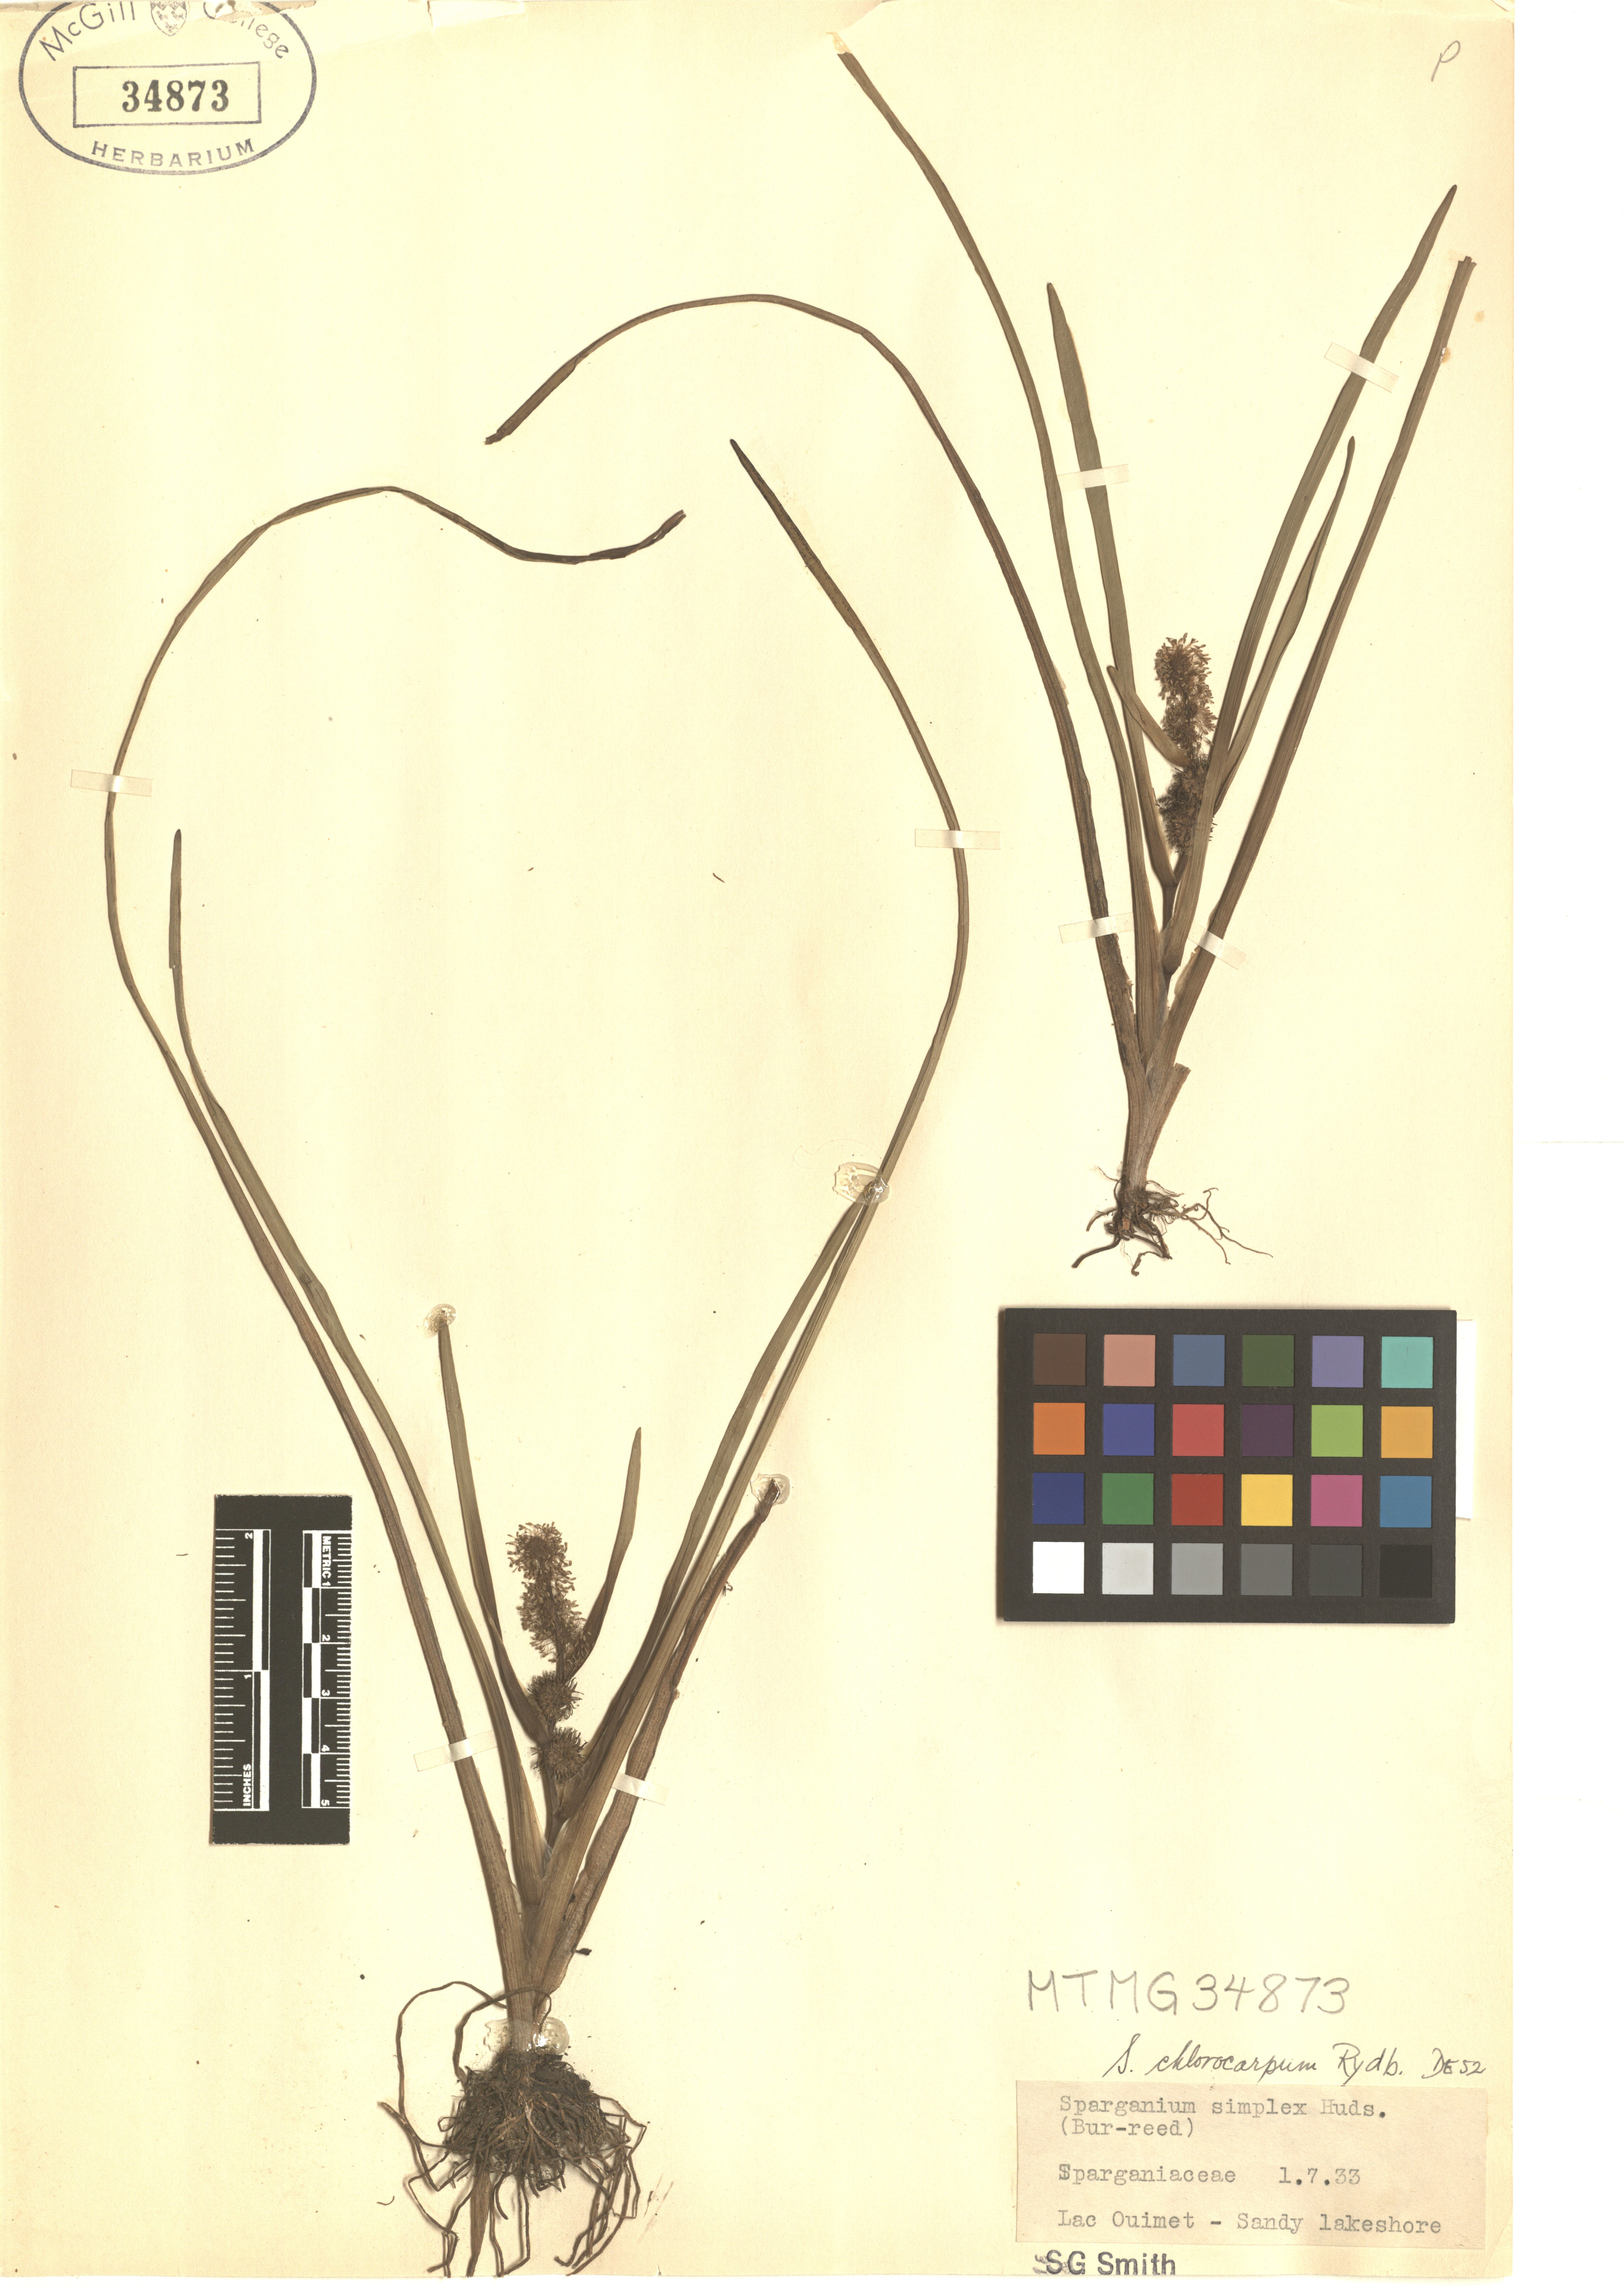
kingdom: Plantae
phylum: Tracheophyta
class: Liliopsida
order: Poales
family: Typhaceae
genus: Sparganium
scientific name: Sparganium emersum
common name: Unbranched bur-reed
